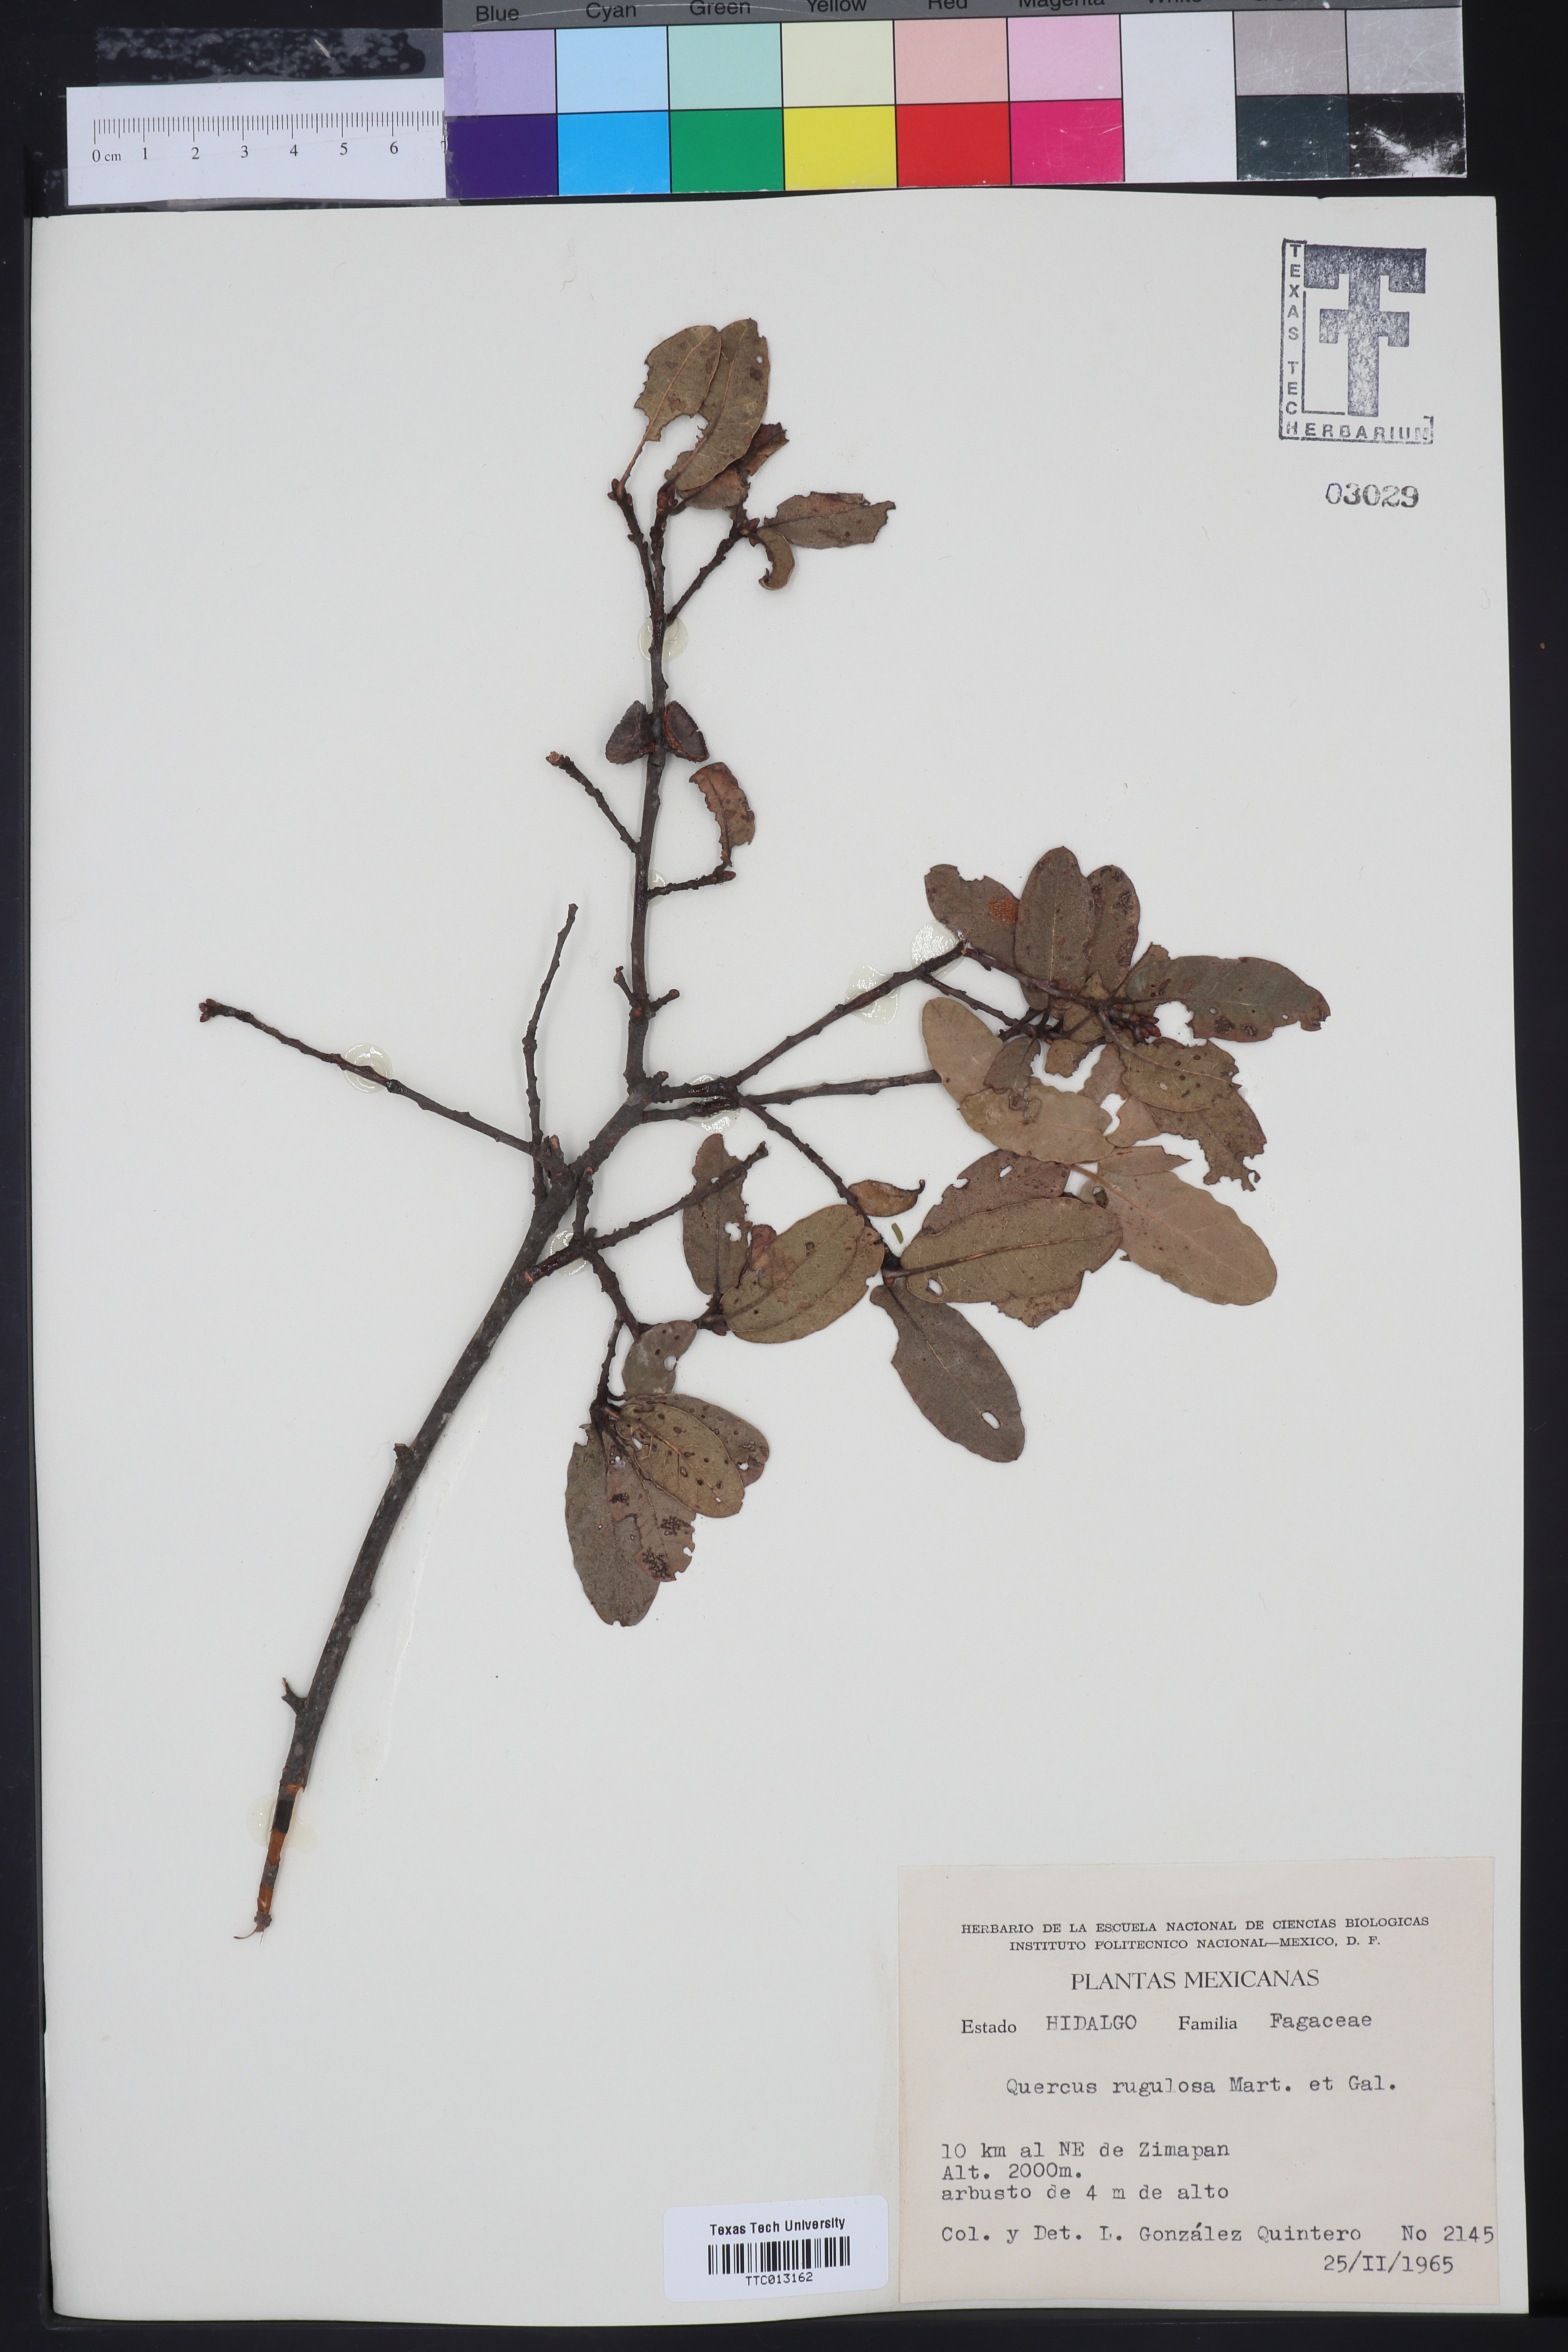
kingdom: Plantae
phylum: Tracheophyta
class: Magnoliopsida
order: Fagales
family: Fagaceae
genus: Quercus
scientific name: Quercus mexicana
